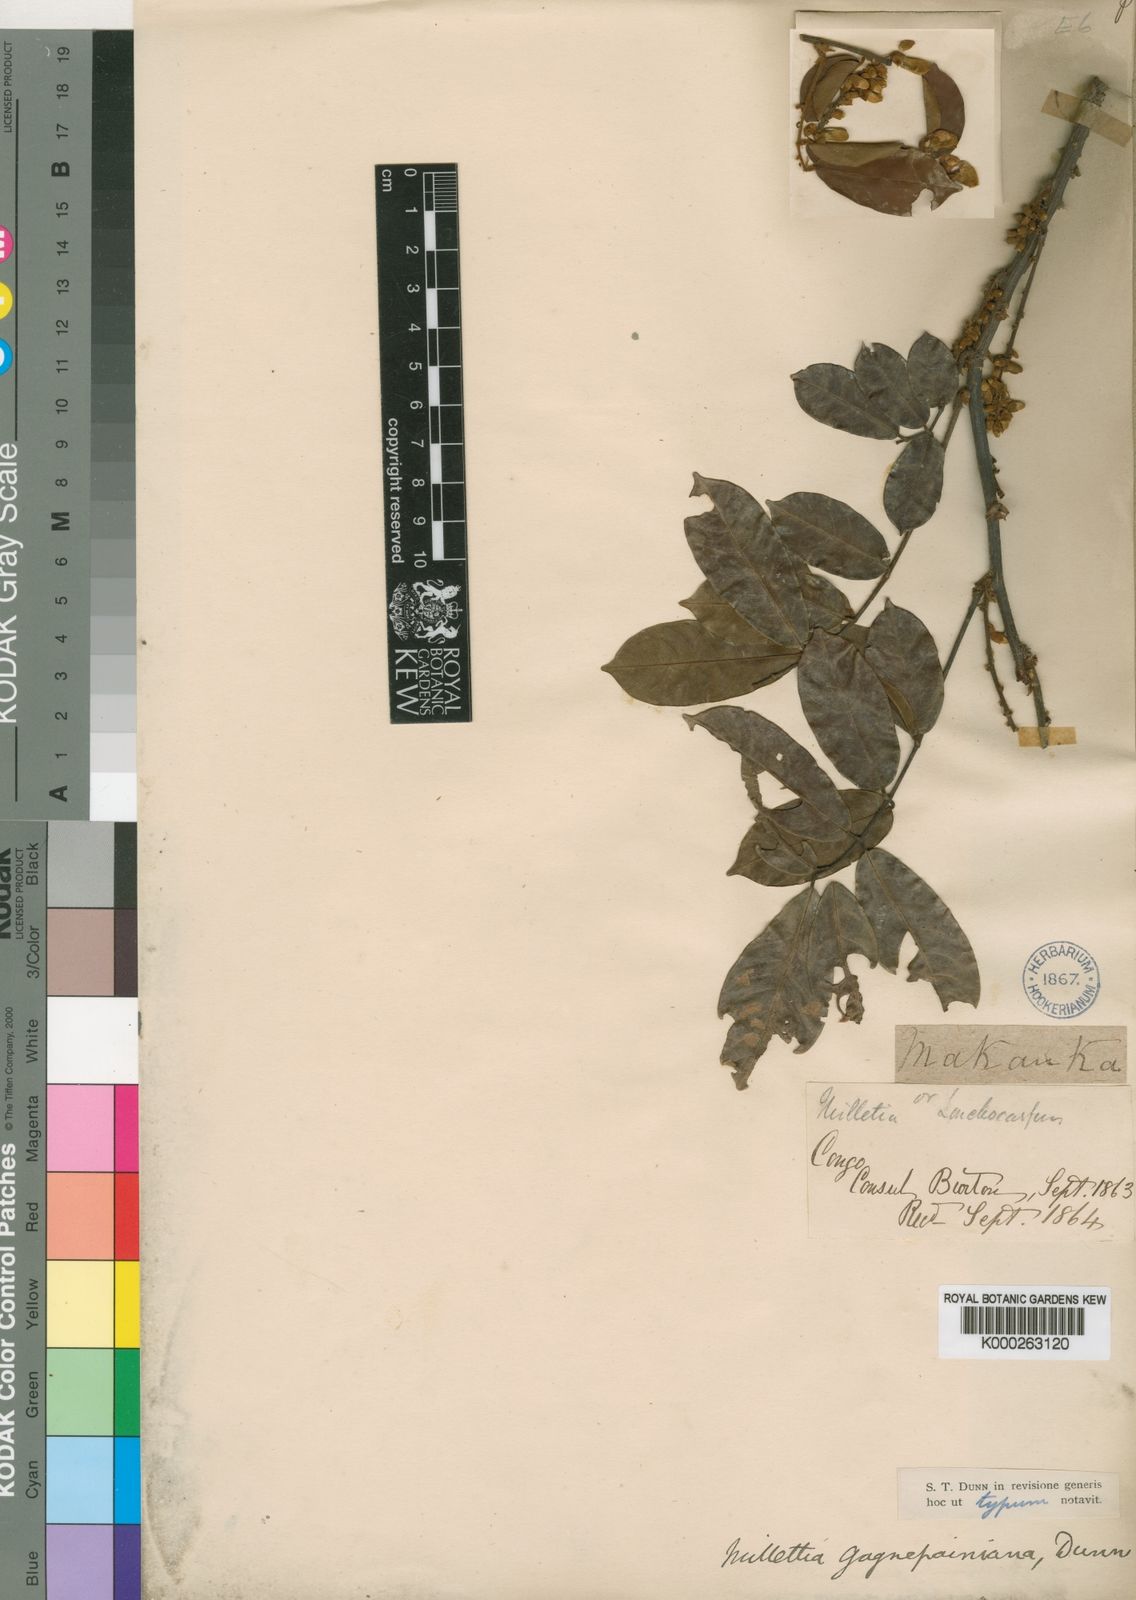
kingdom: Plantae
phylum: Tracheophyta
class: Magnoliopsida
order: Fabales
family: Fabaceae
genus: Millettia
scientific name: Millettia comosa
